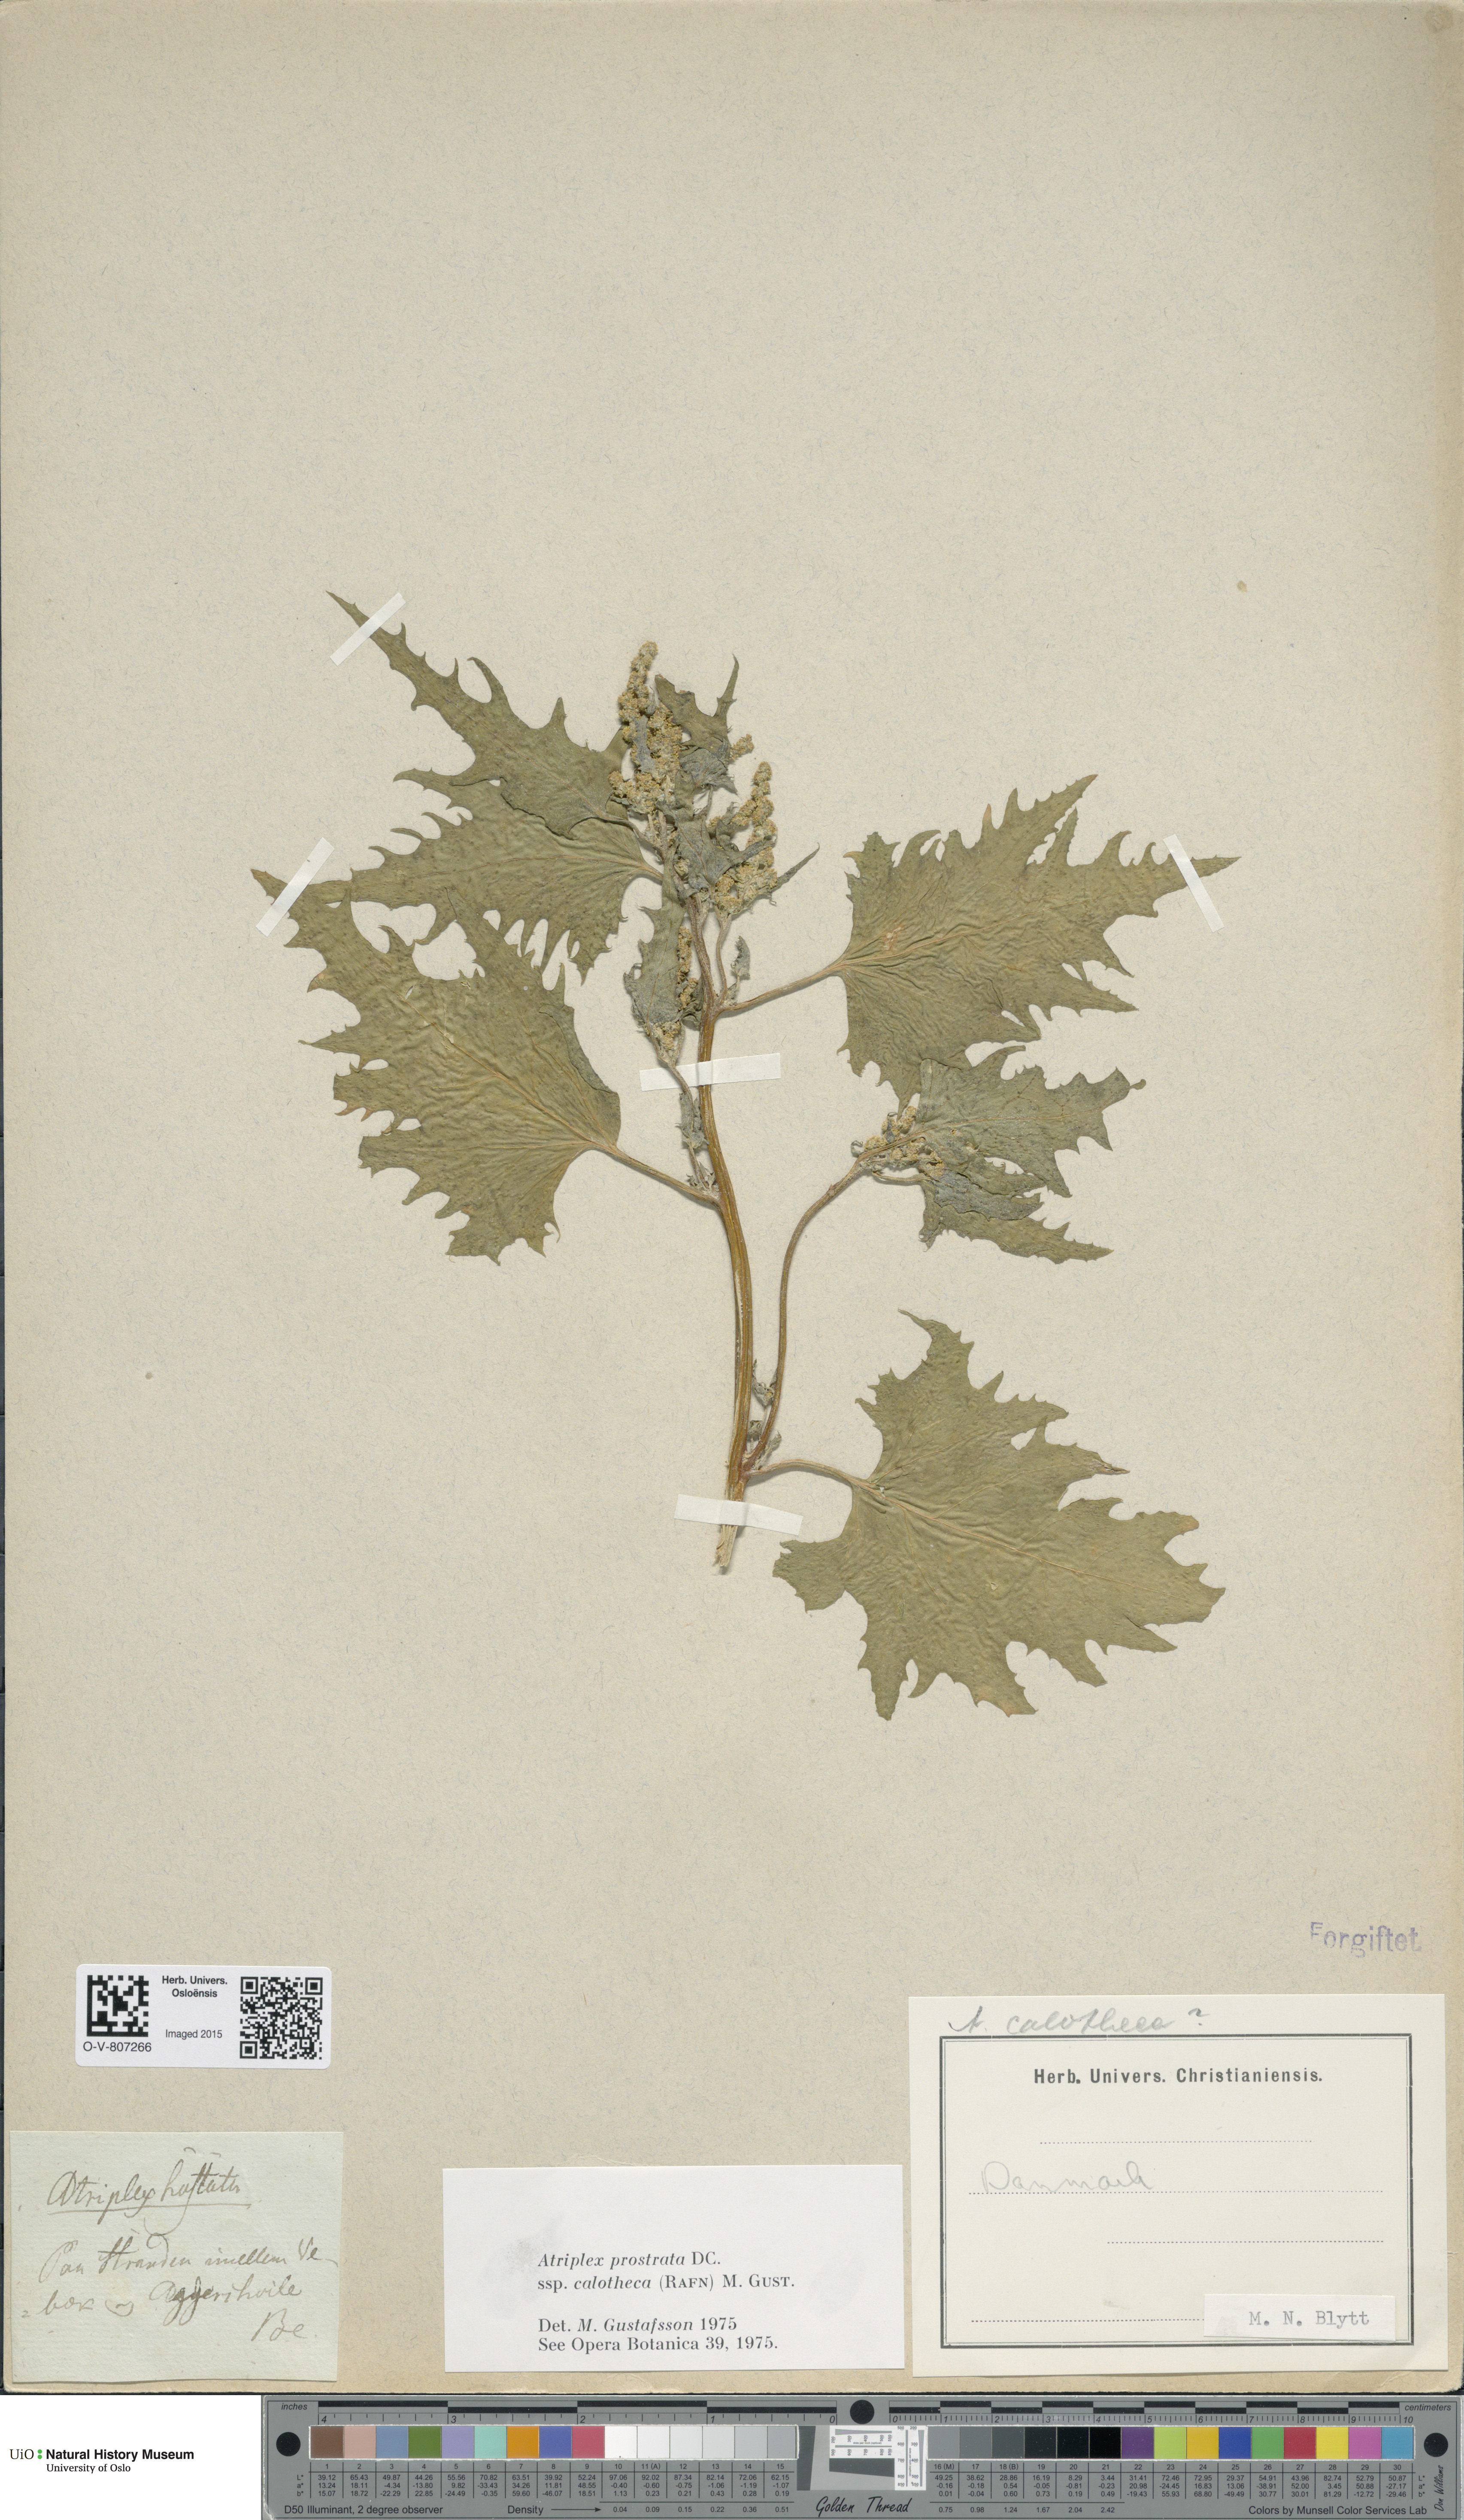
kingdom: Plantae
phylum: Tracheophyta
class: Magnoliopsida
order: Caryophyllales
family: Amaranthaceae
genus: Atriplex
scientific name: Atriplex calotheca
